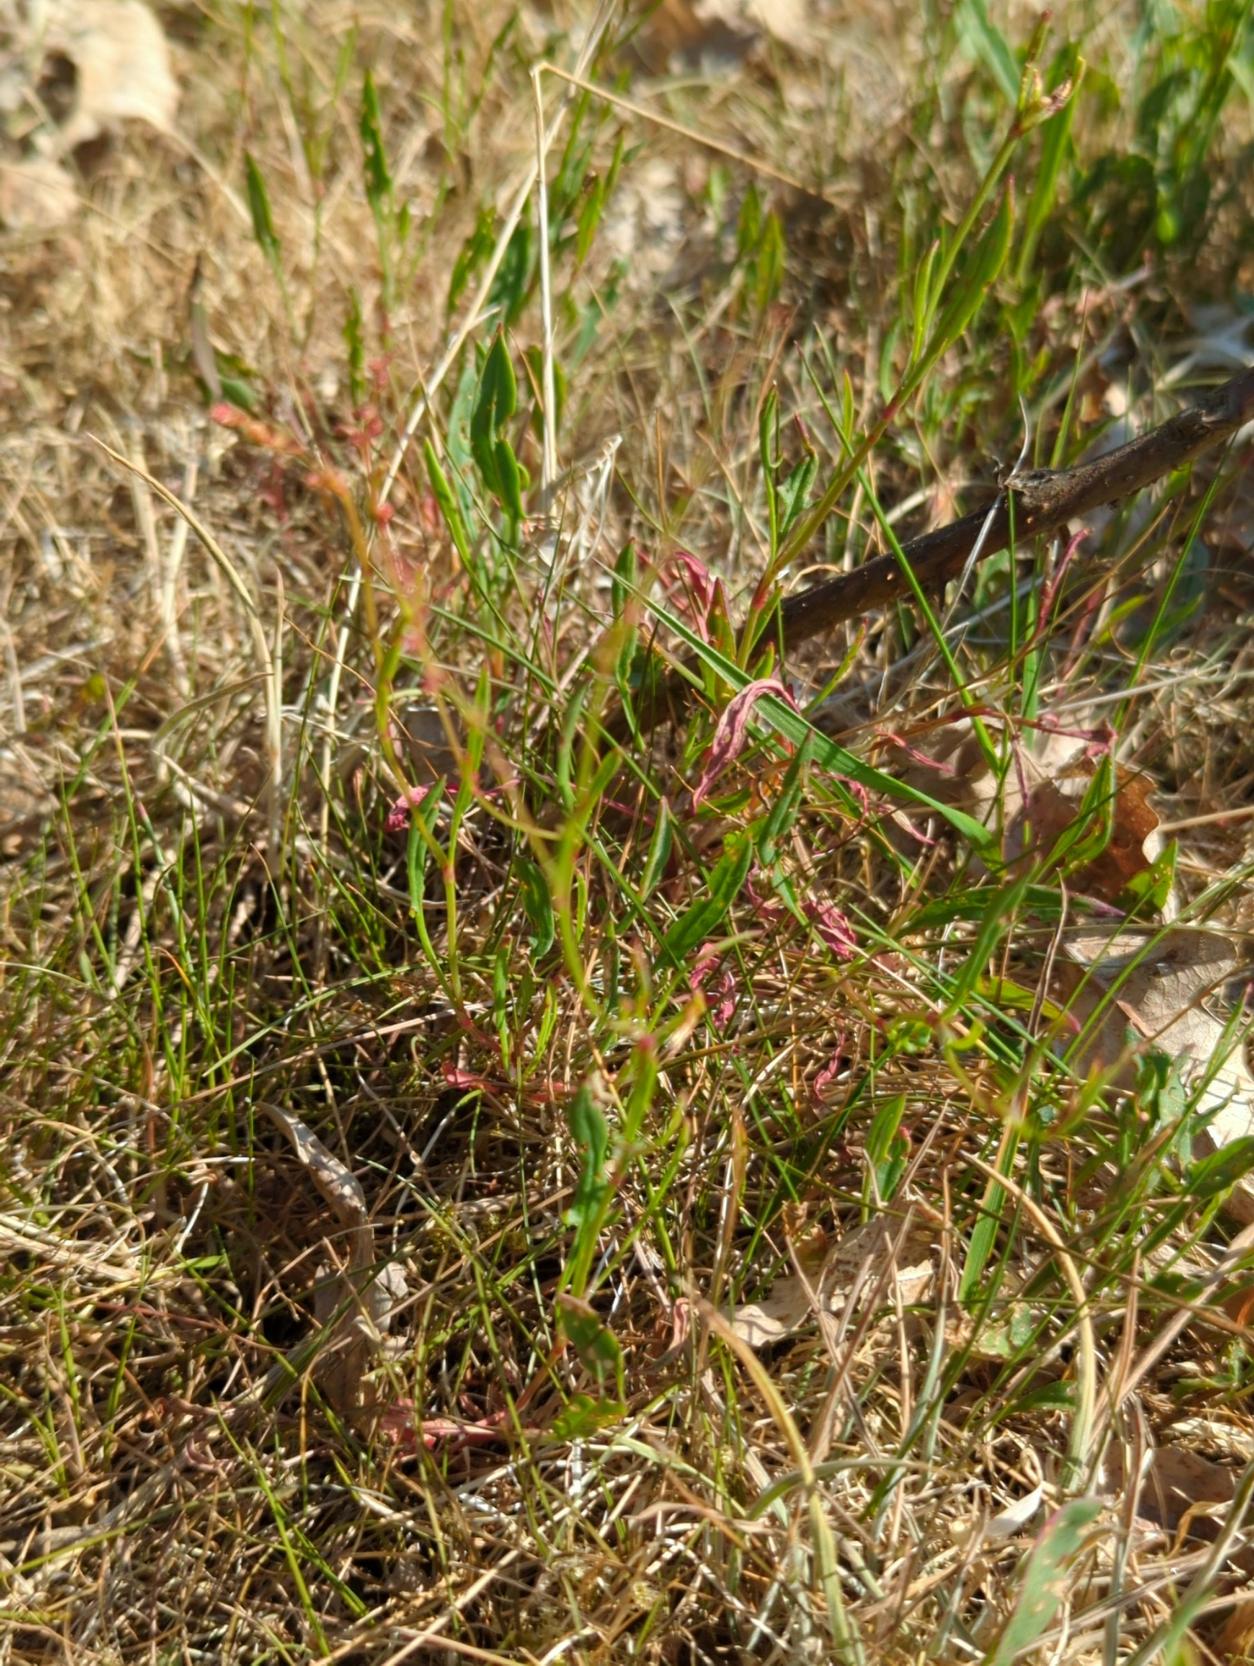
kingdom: Plantae
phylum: Tracheophyta
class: Magnoliopsida
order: Caryophyllales
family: Polygonaceae
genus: Rumex
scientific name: Rumex acetosella
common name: Rødknæ
